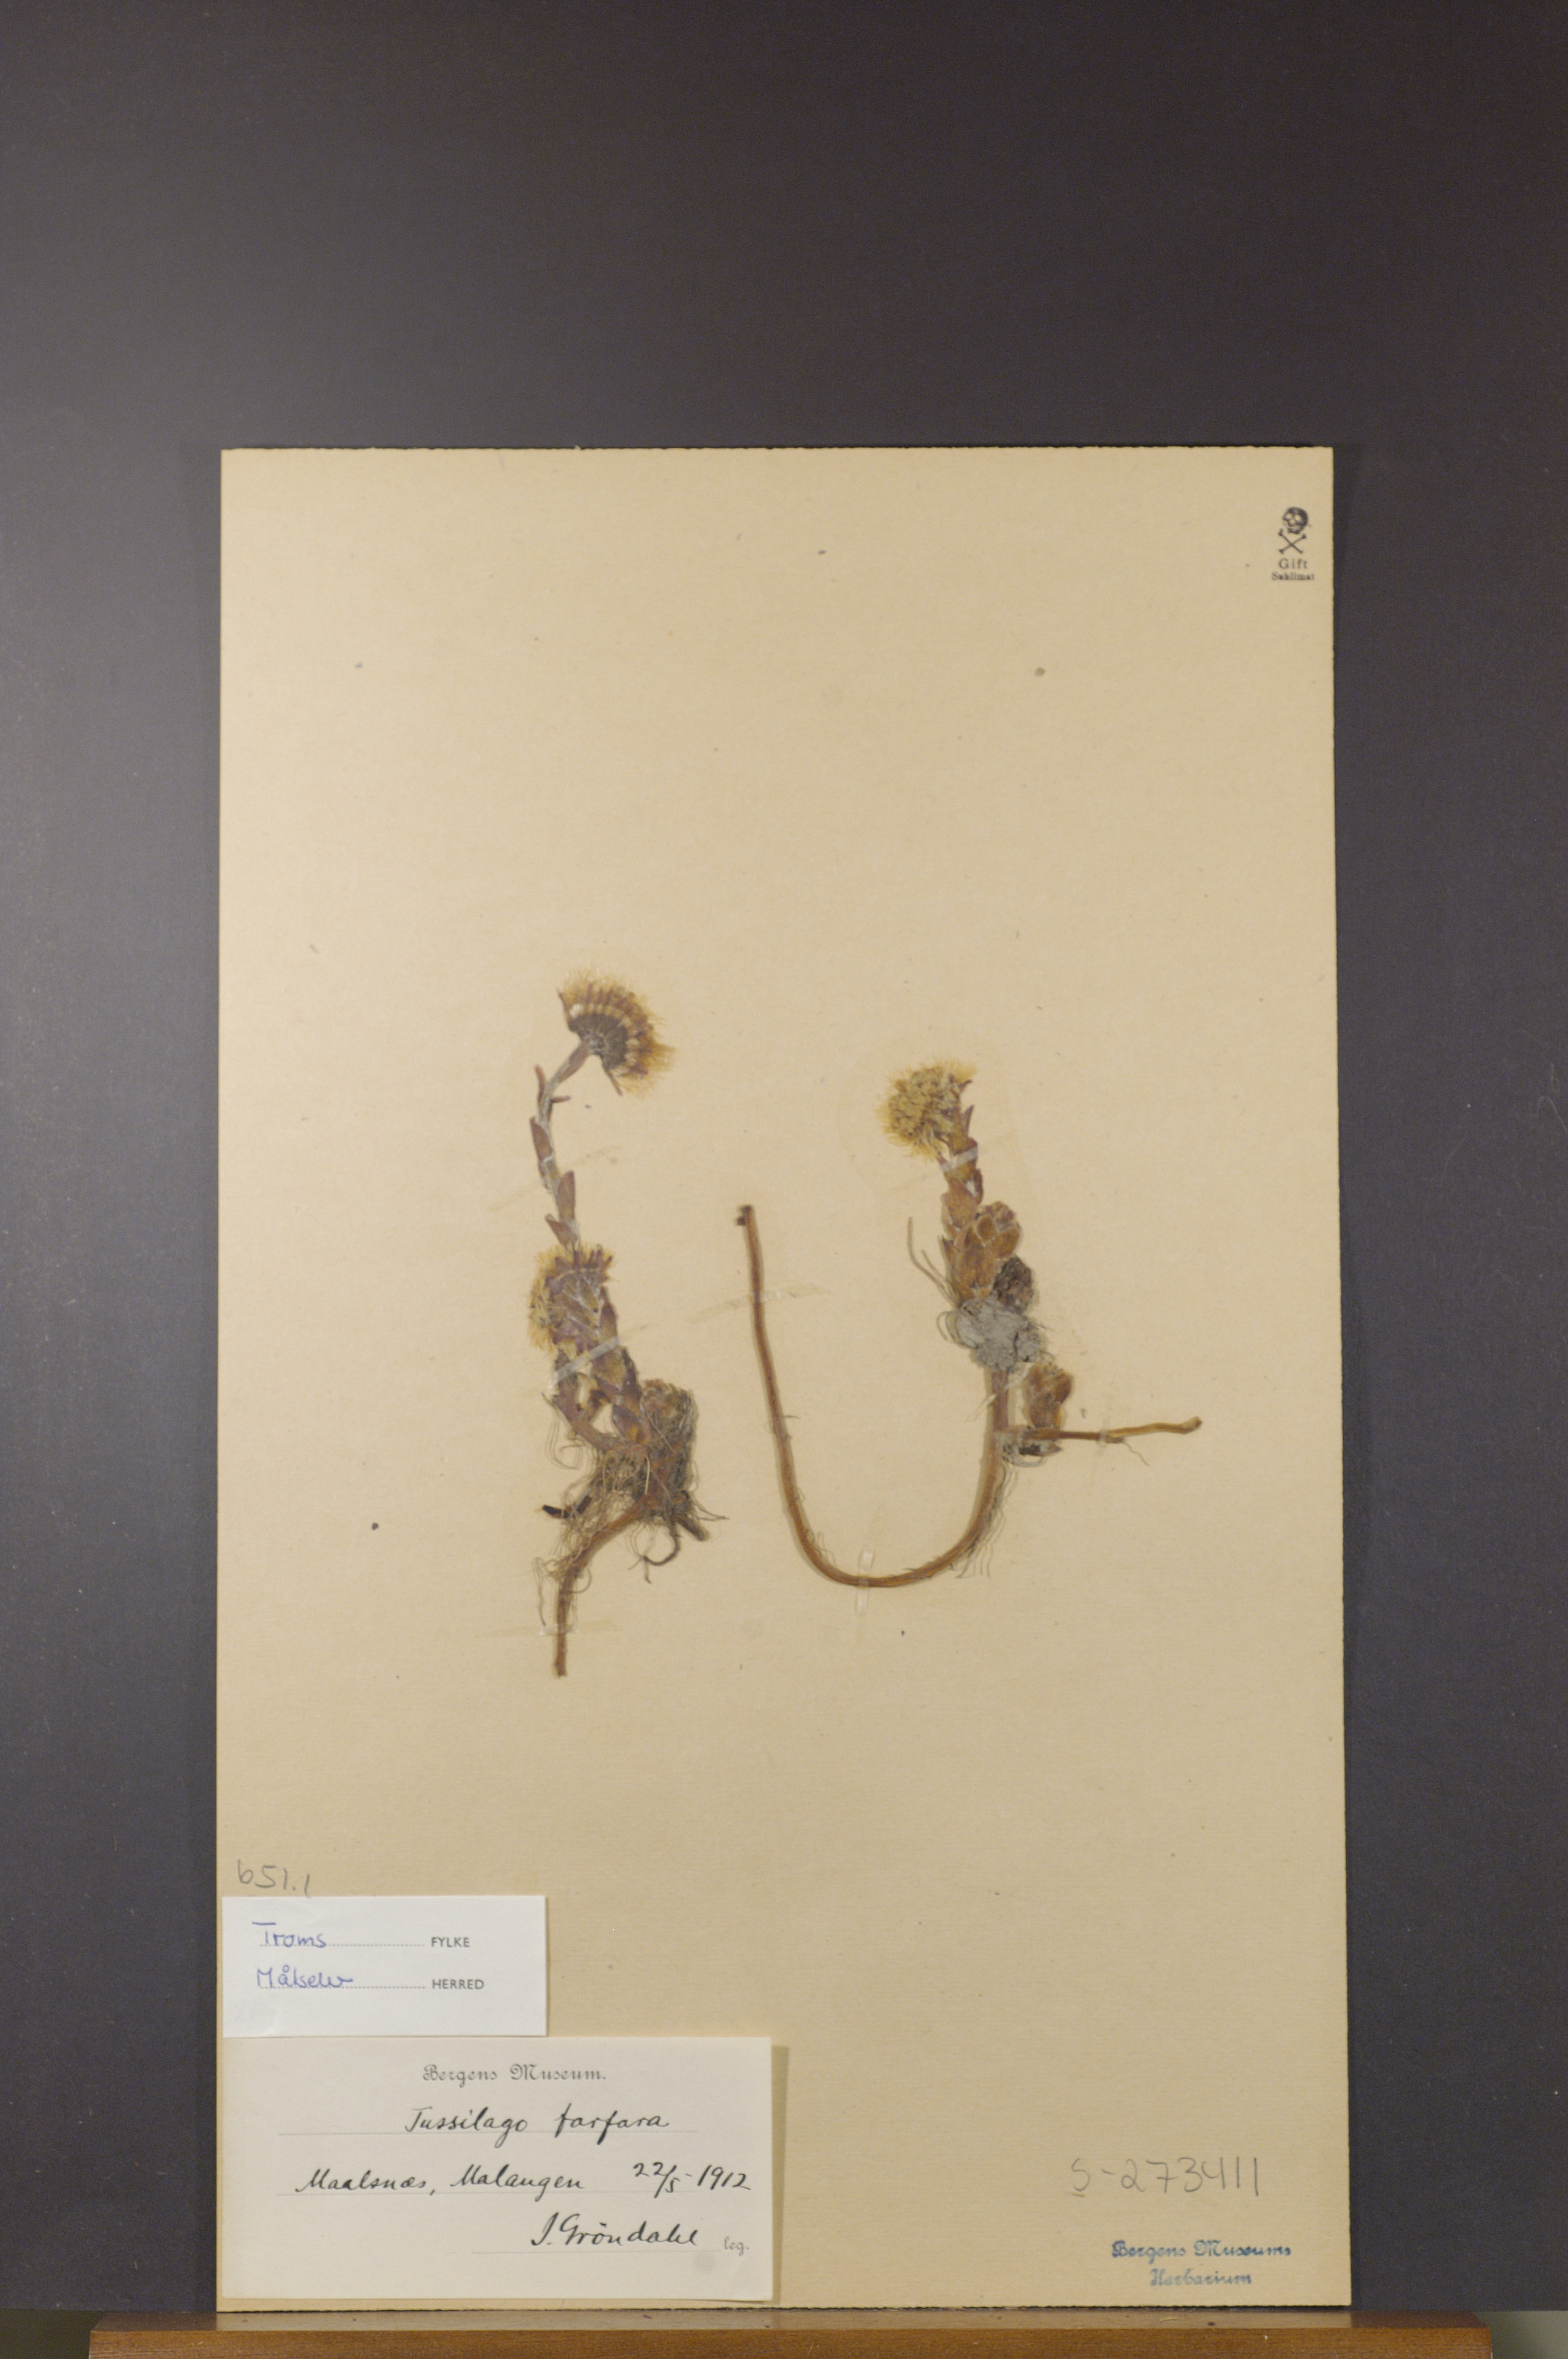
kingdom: Plantae
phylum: Tracheophyta
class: Magnoliopsida
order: Asterales
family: Asteraceae
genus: Tussilago
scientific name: Tussilago farfara
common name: Coltsfoot
